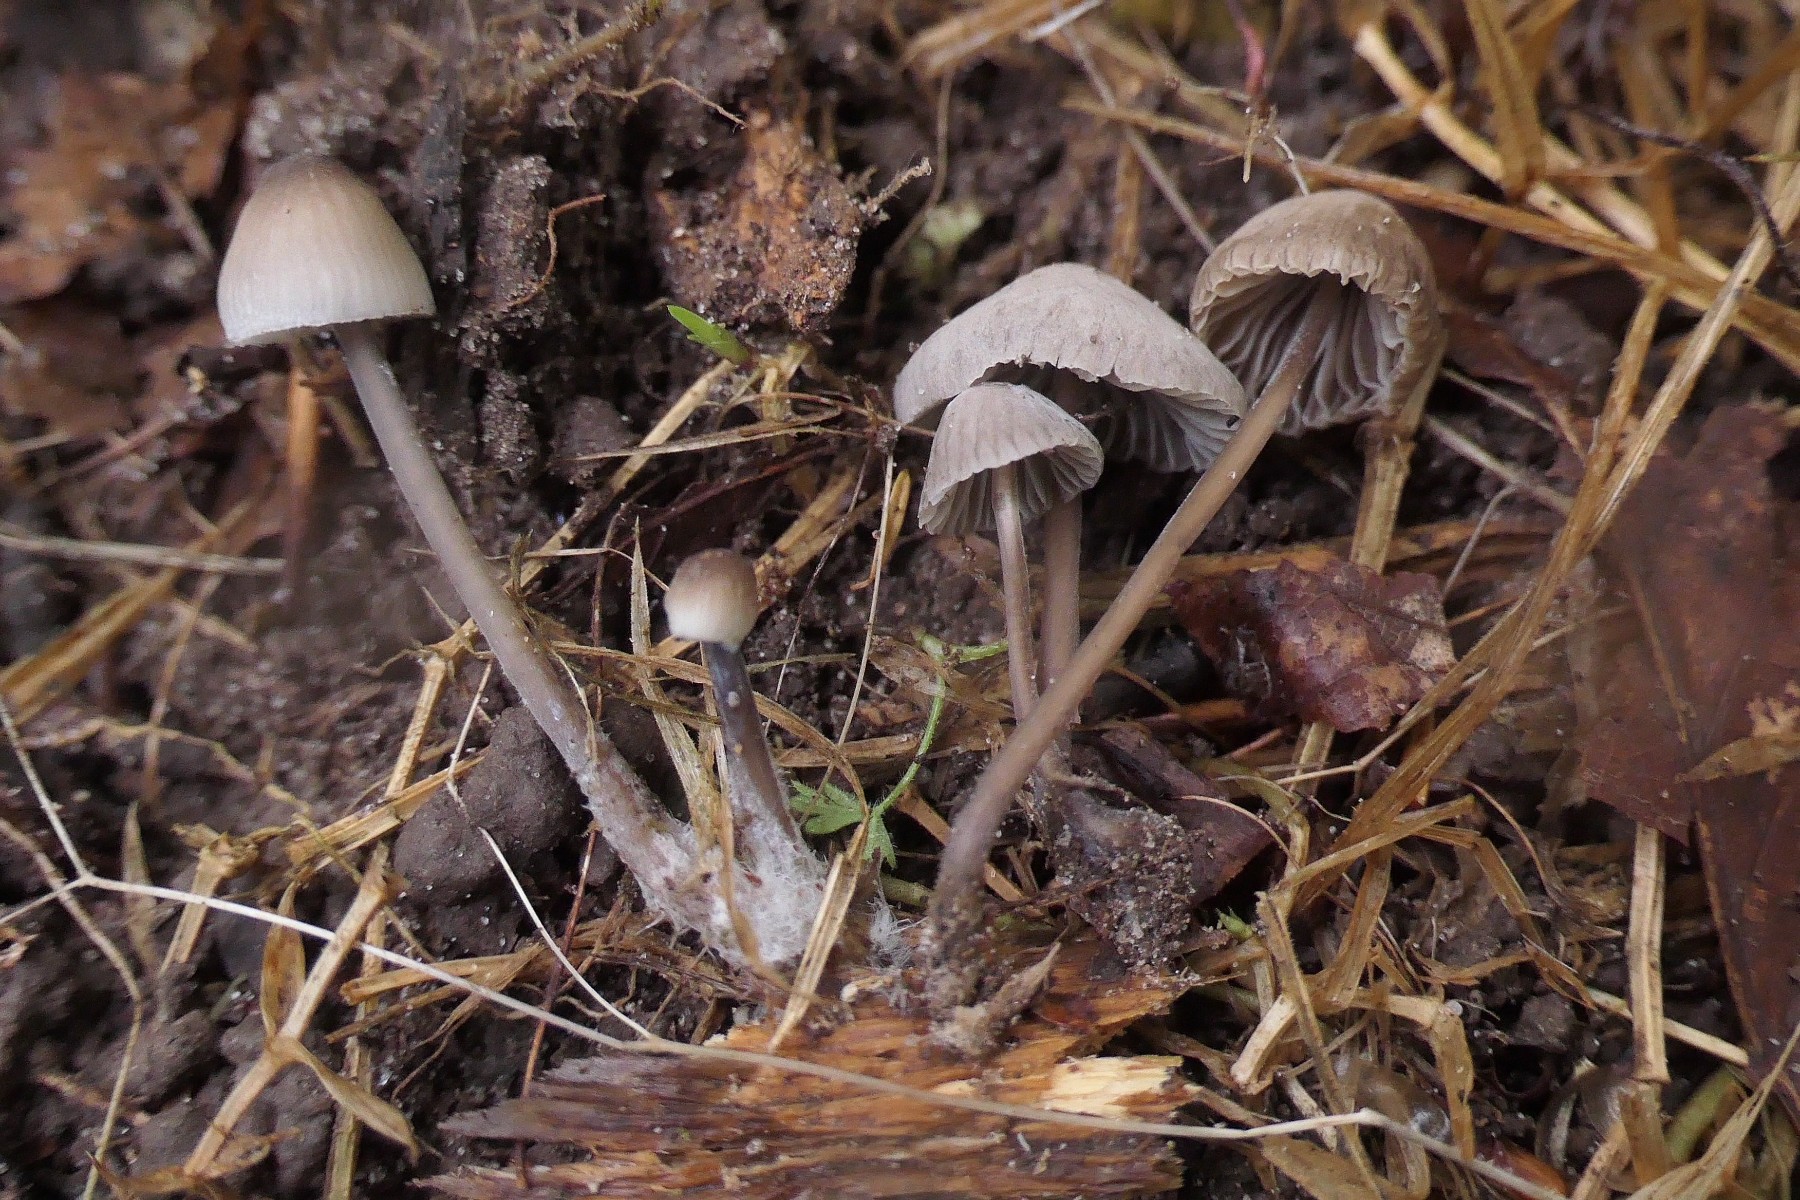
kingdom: Fungi
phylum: Basidiomycota
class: Agaricomycetes
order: Agaricales
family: Mycenaceae
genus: Mycena
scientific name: Mycena leptocephala
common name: klor-huesvamp
